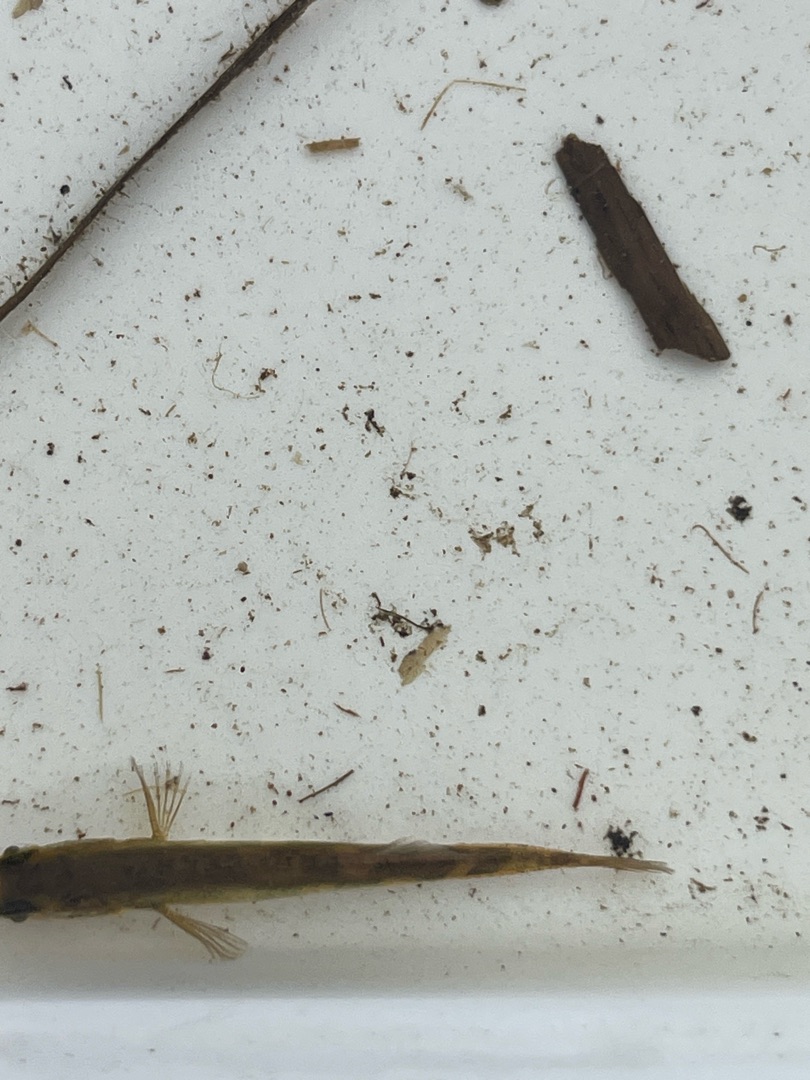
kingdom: Animalia
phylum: Chordata
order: Gasterosteiformes
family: Gasterosteidae
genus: Pungitius
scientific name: Pungitius pungitius
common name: Nipigget hundestejle
